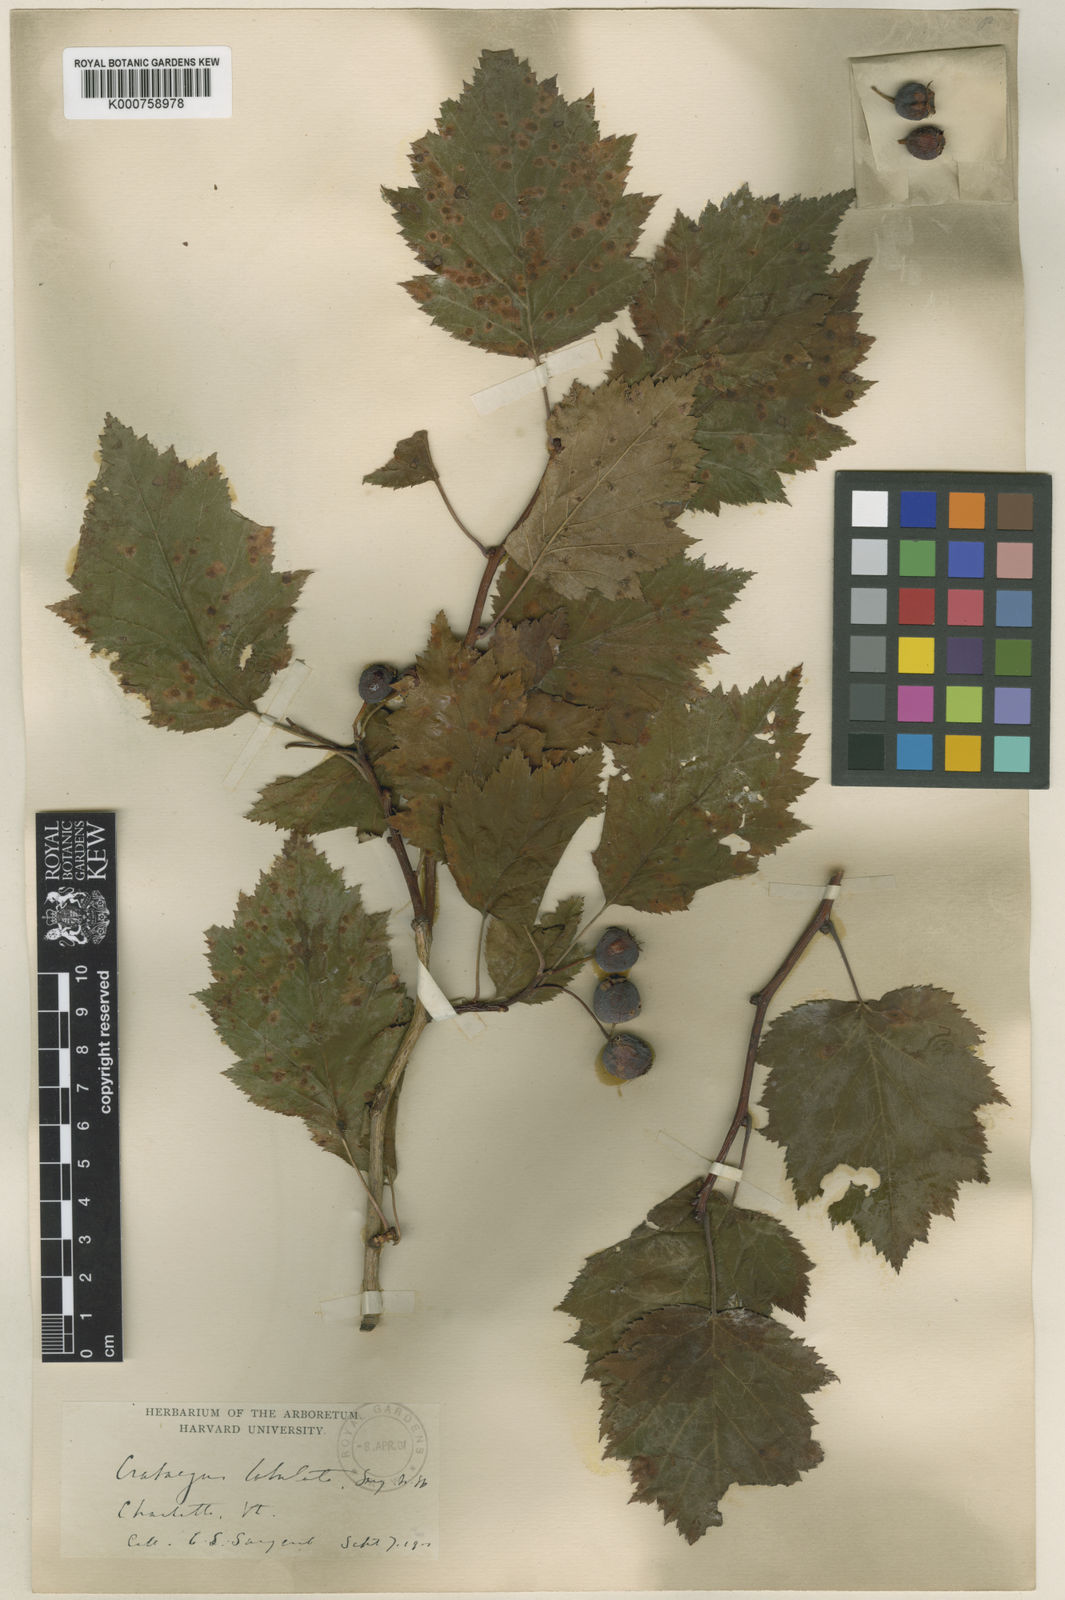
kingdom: Plantae
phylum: Tracheophyta
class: Magnoliopsida
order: Rosales
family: Rosaceae
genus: Crataegus
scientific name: Crataegus coccinea
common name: Scarlet hawthorn
